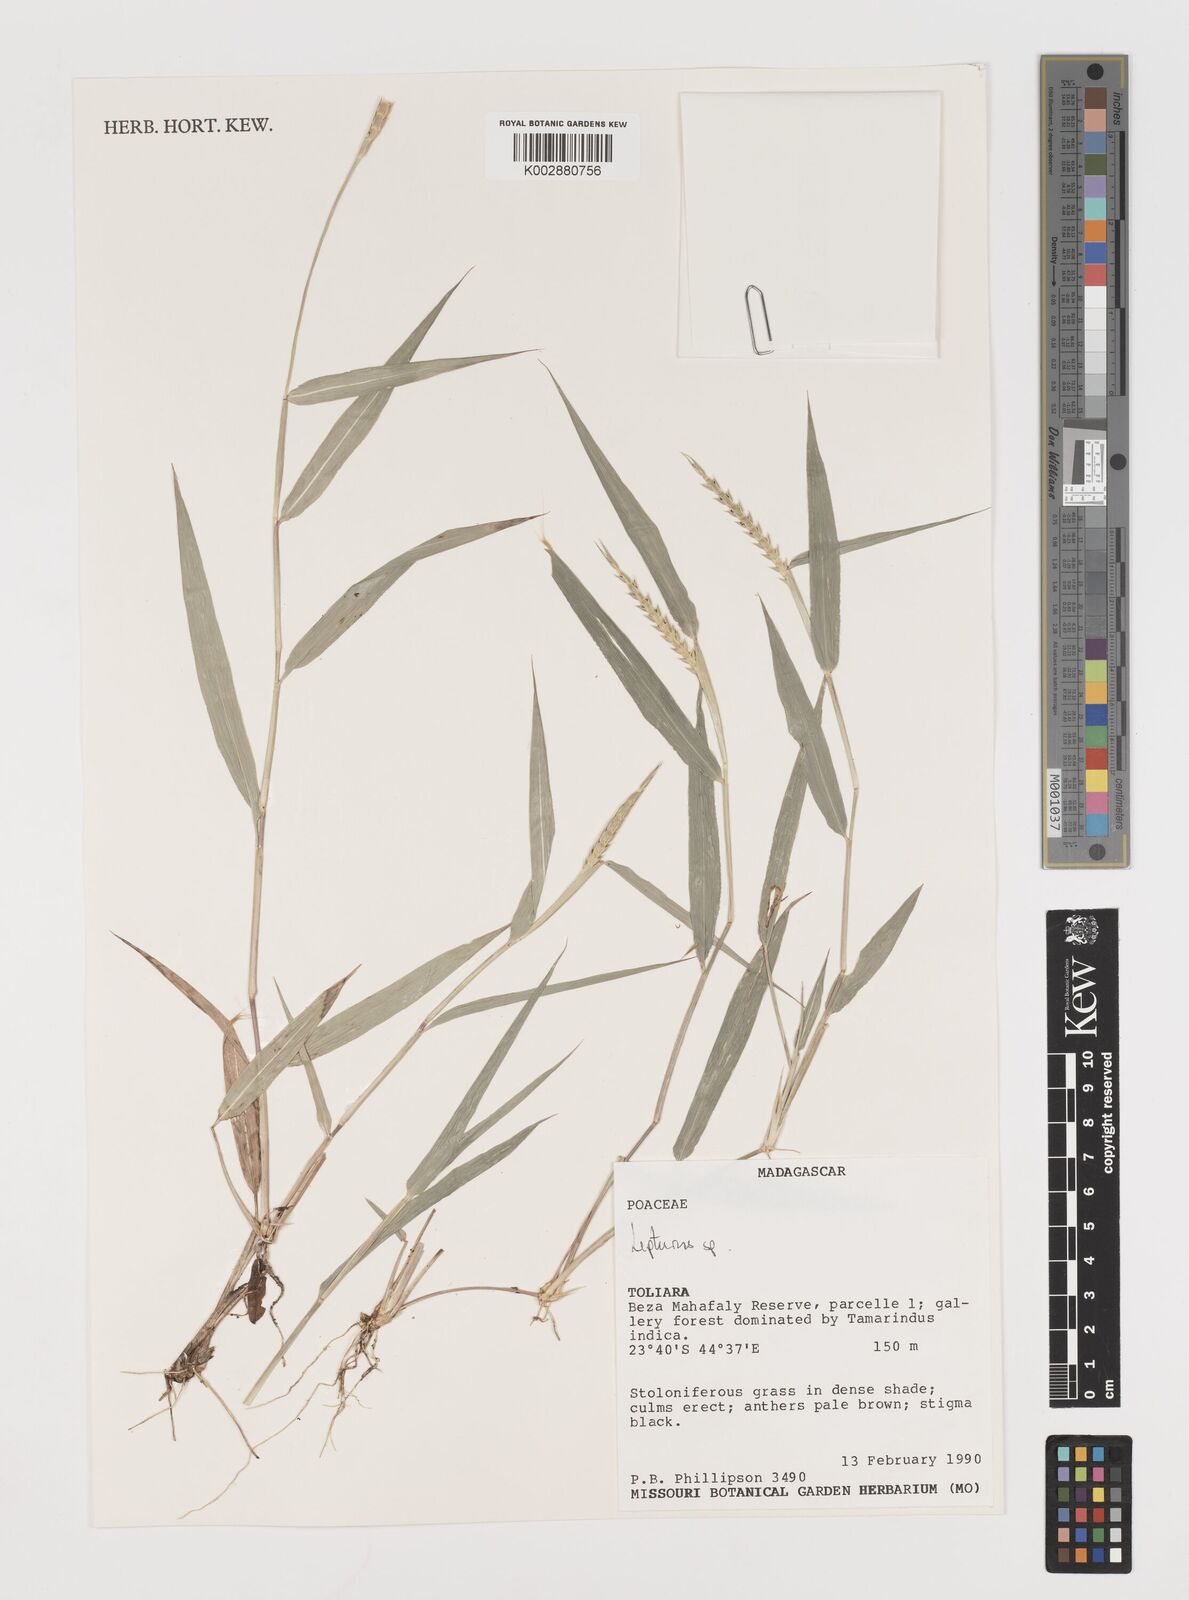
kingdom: Plantae
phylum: Tracheophyta
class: Liliopsida
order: Poales
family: Poaceae
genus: Lepturus
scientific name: Lepturus radicans
